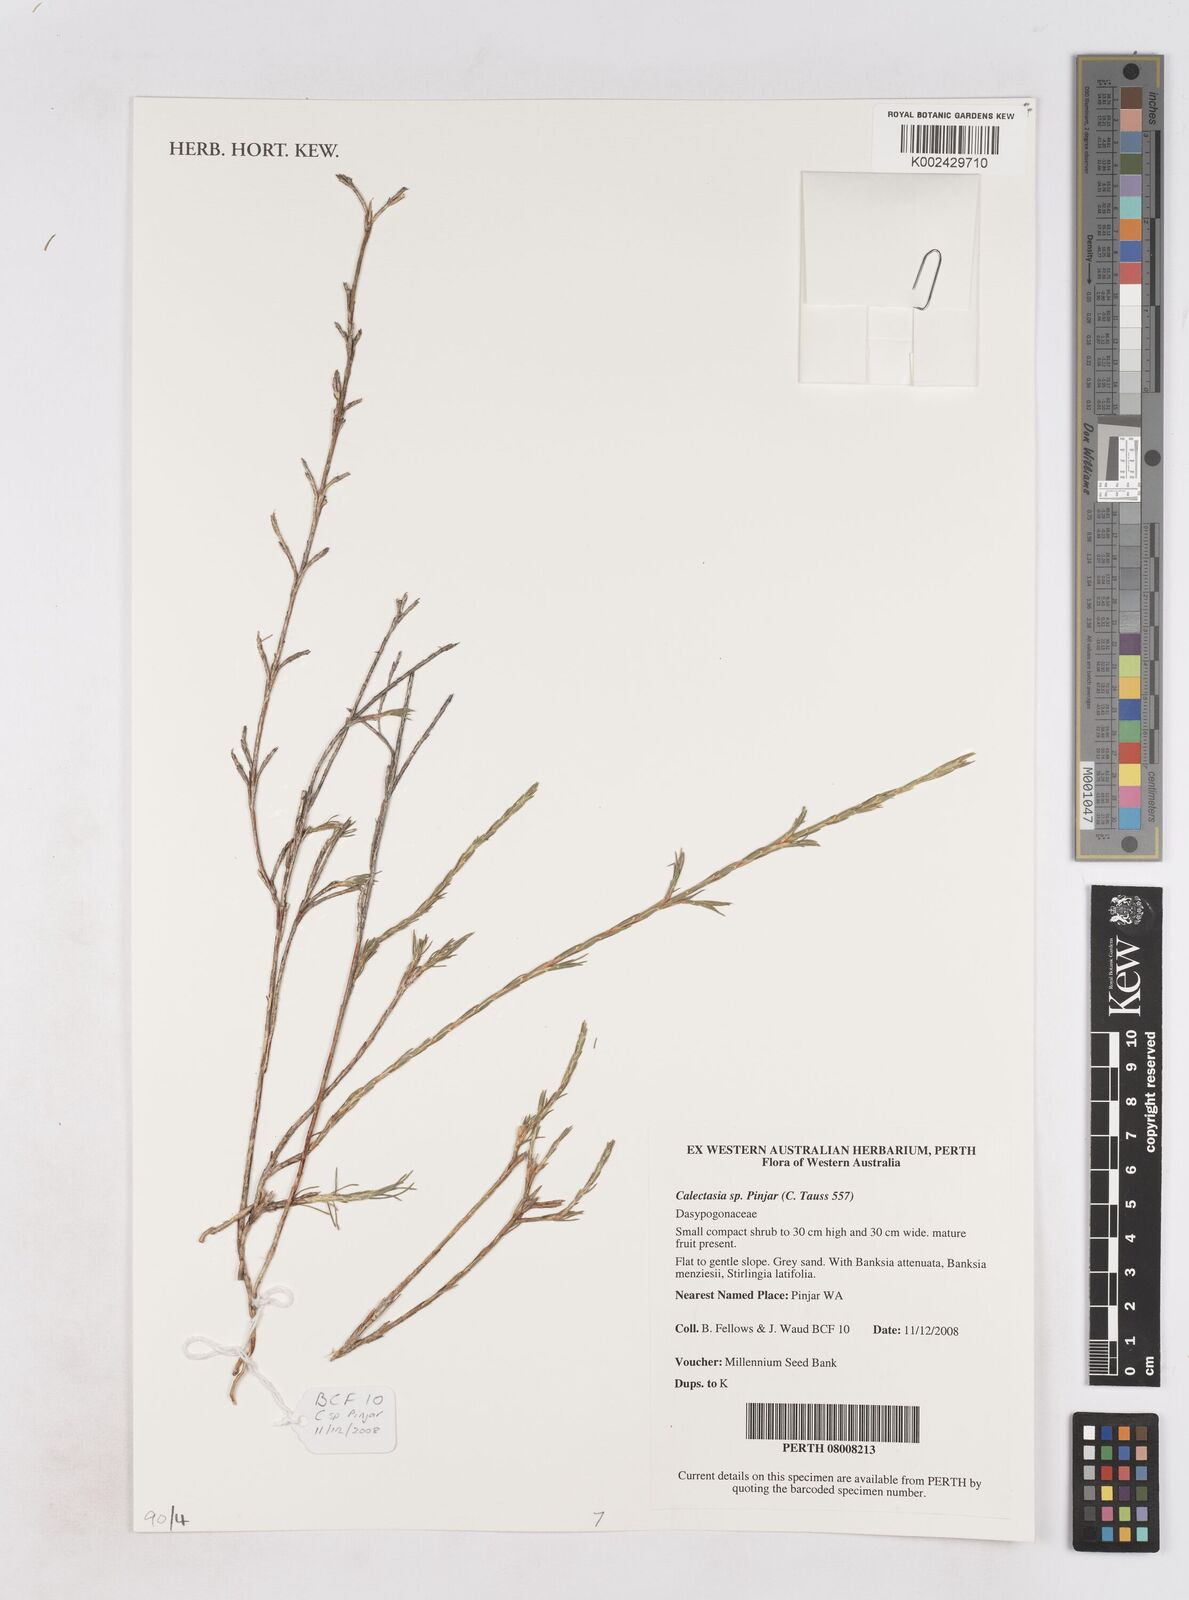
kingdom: Plantae
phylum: Tracheophyta
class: Liliopsida
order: Arecales
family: Dasypogonaceae
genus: Calectasia
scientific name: Calectasia
